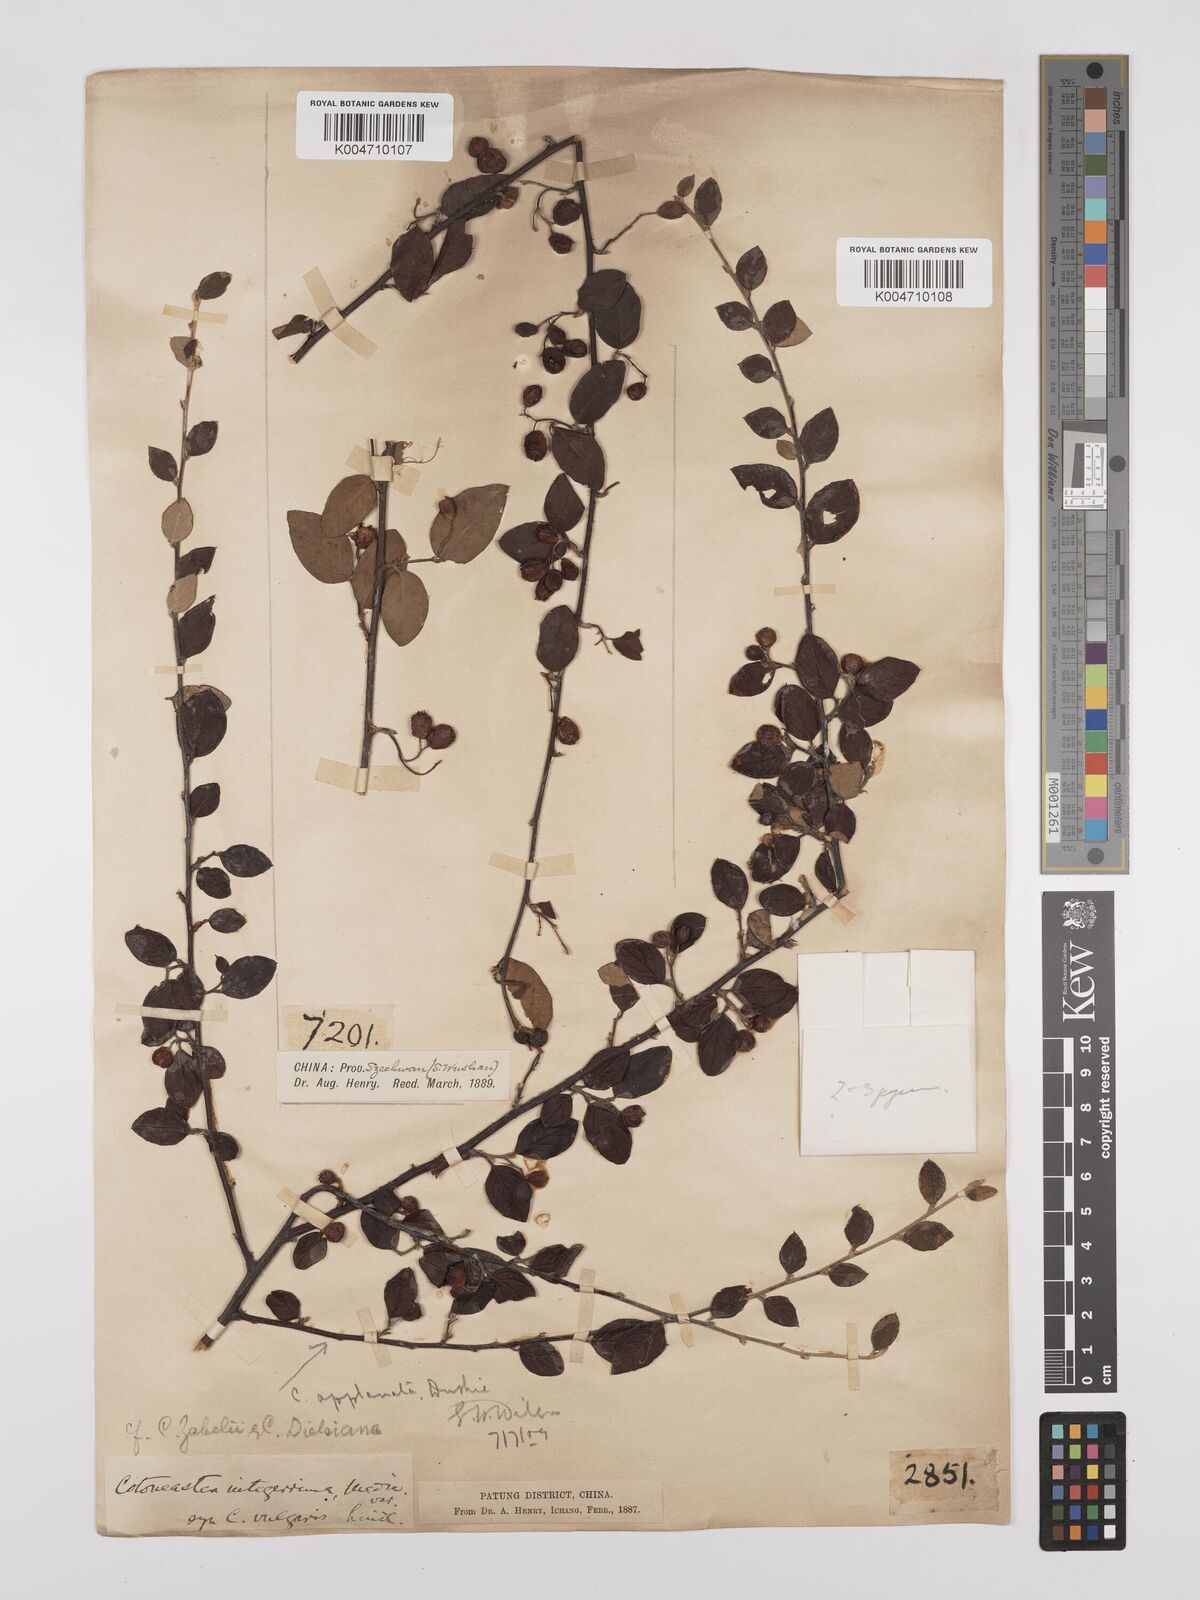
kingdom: Plantae
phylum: Tracheophyta
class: Magnoliopsida
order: Rosales
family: Rosaceae
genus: Cotoneaster
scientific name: Cotoneaster dielsianus
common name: Diels's cotoneaster
